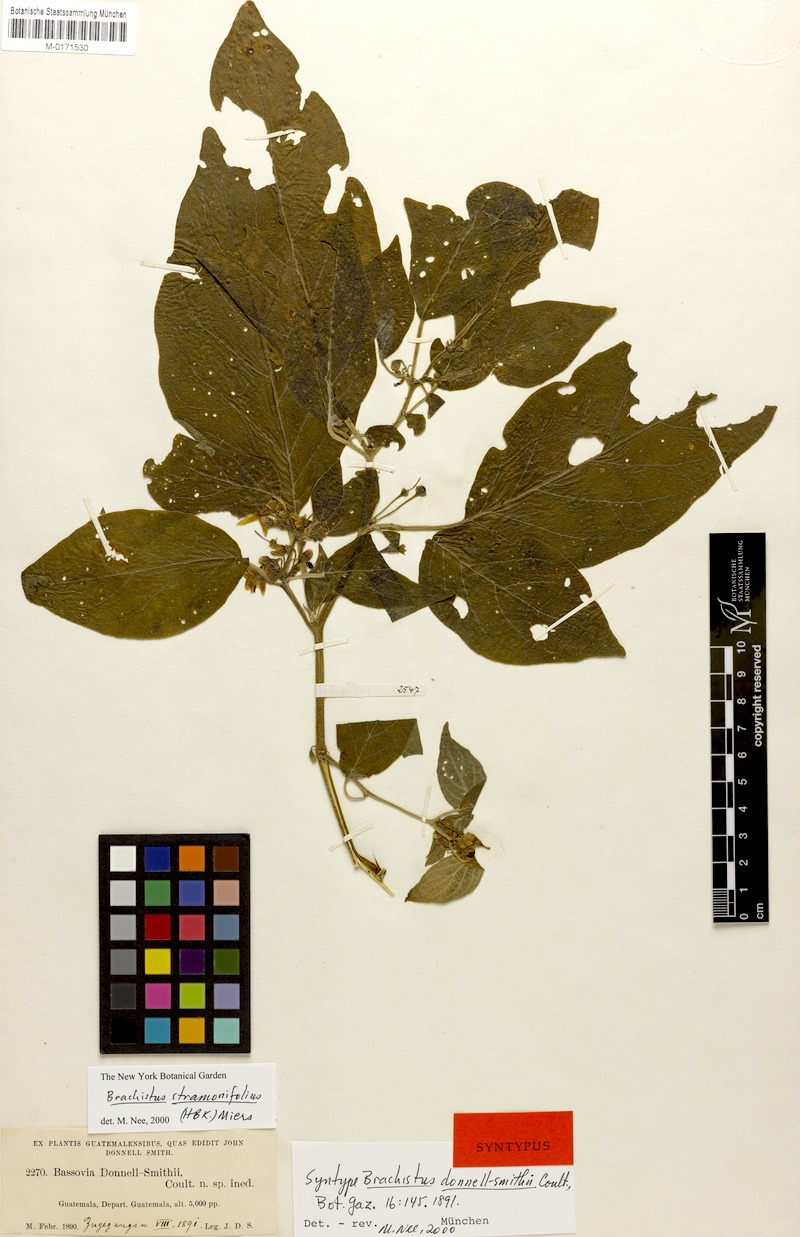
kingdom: Plantae
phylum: Tracheophyta
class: Magnoliopsida
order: Solanales
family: Solanaceae
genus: Brachistus
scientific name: Brachistus stramonifolius
